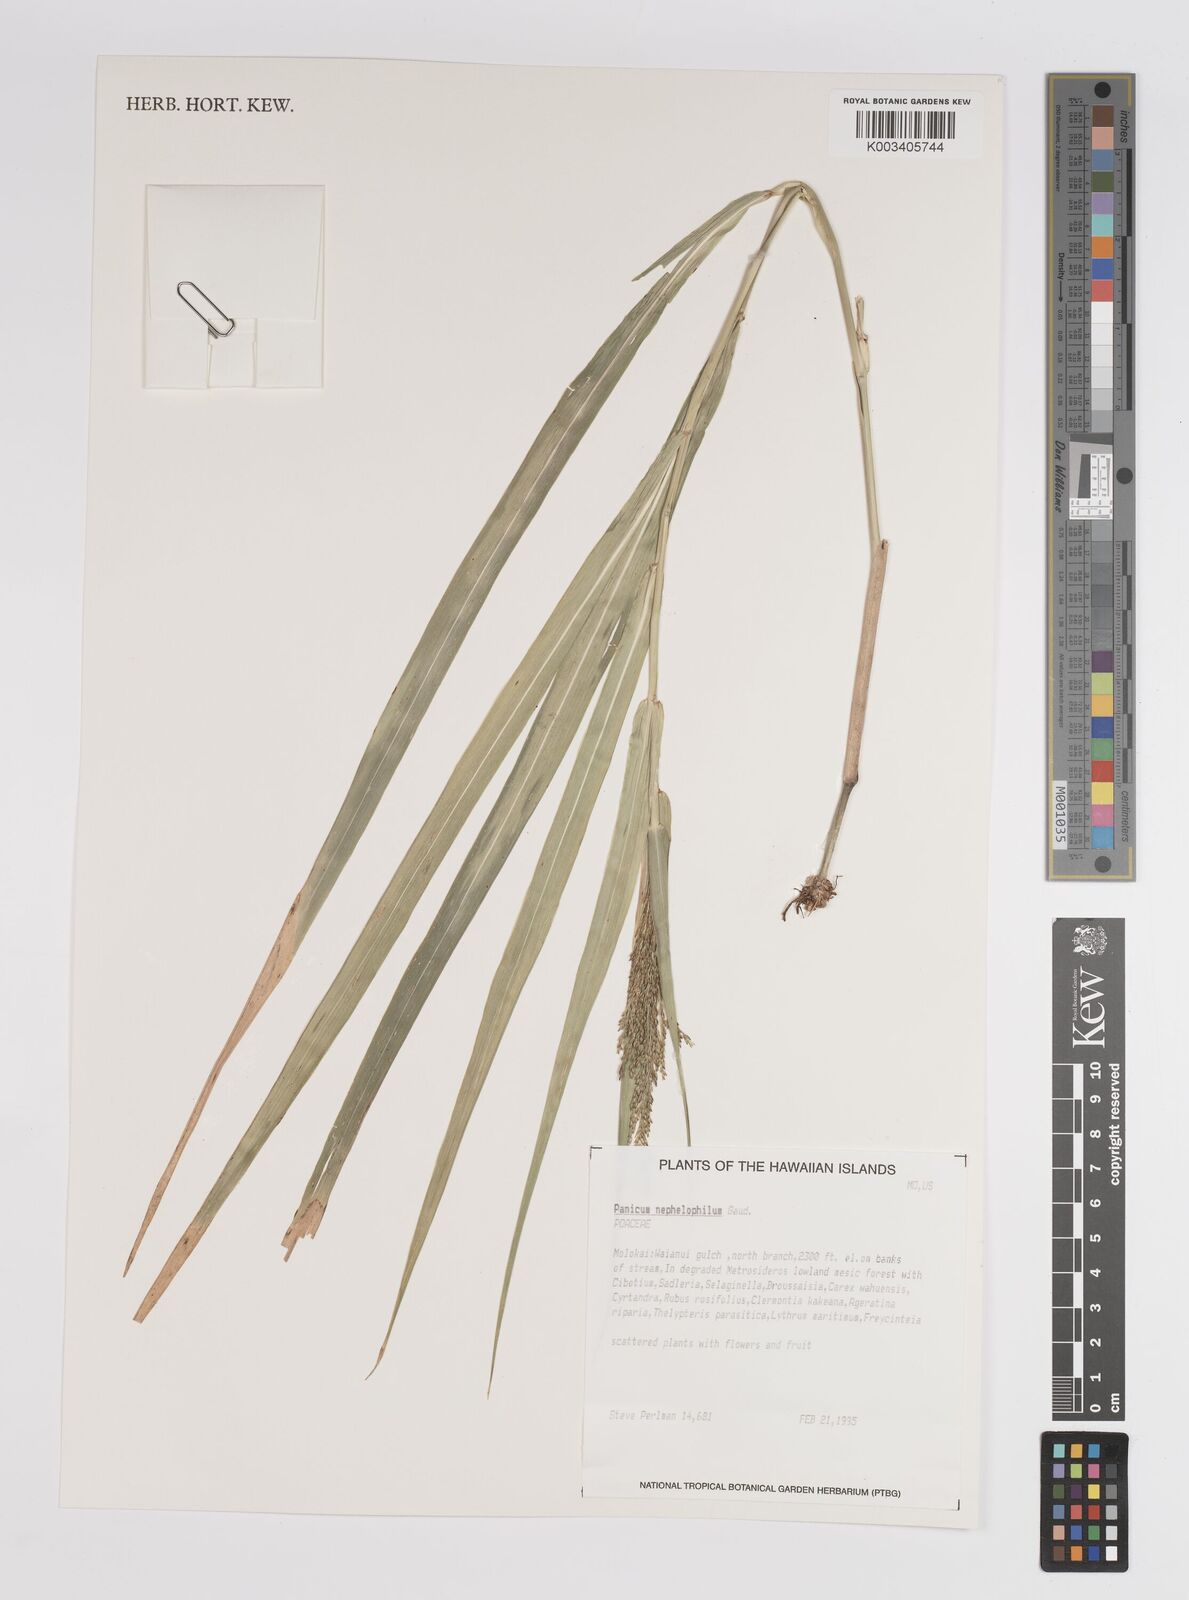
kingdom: Plantae
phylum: Tracheophyta
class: Liliopsida
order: Poales
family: Poaceae
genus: Panicum
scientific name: Panicum nephelophilum
